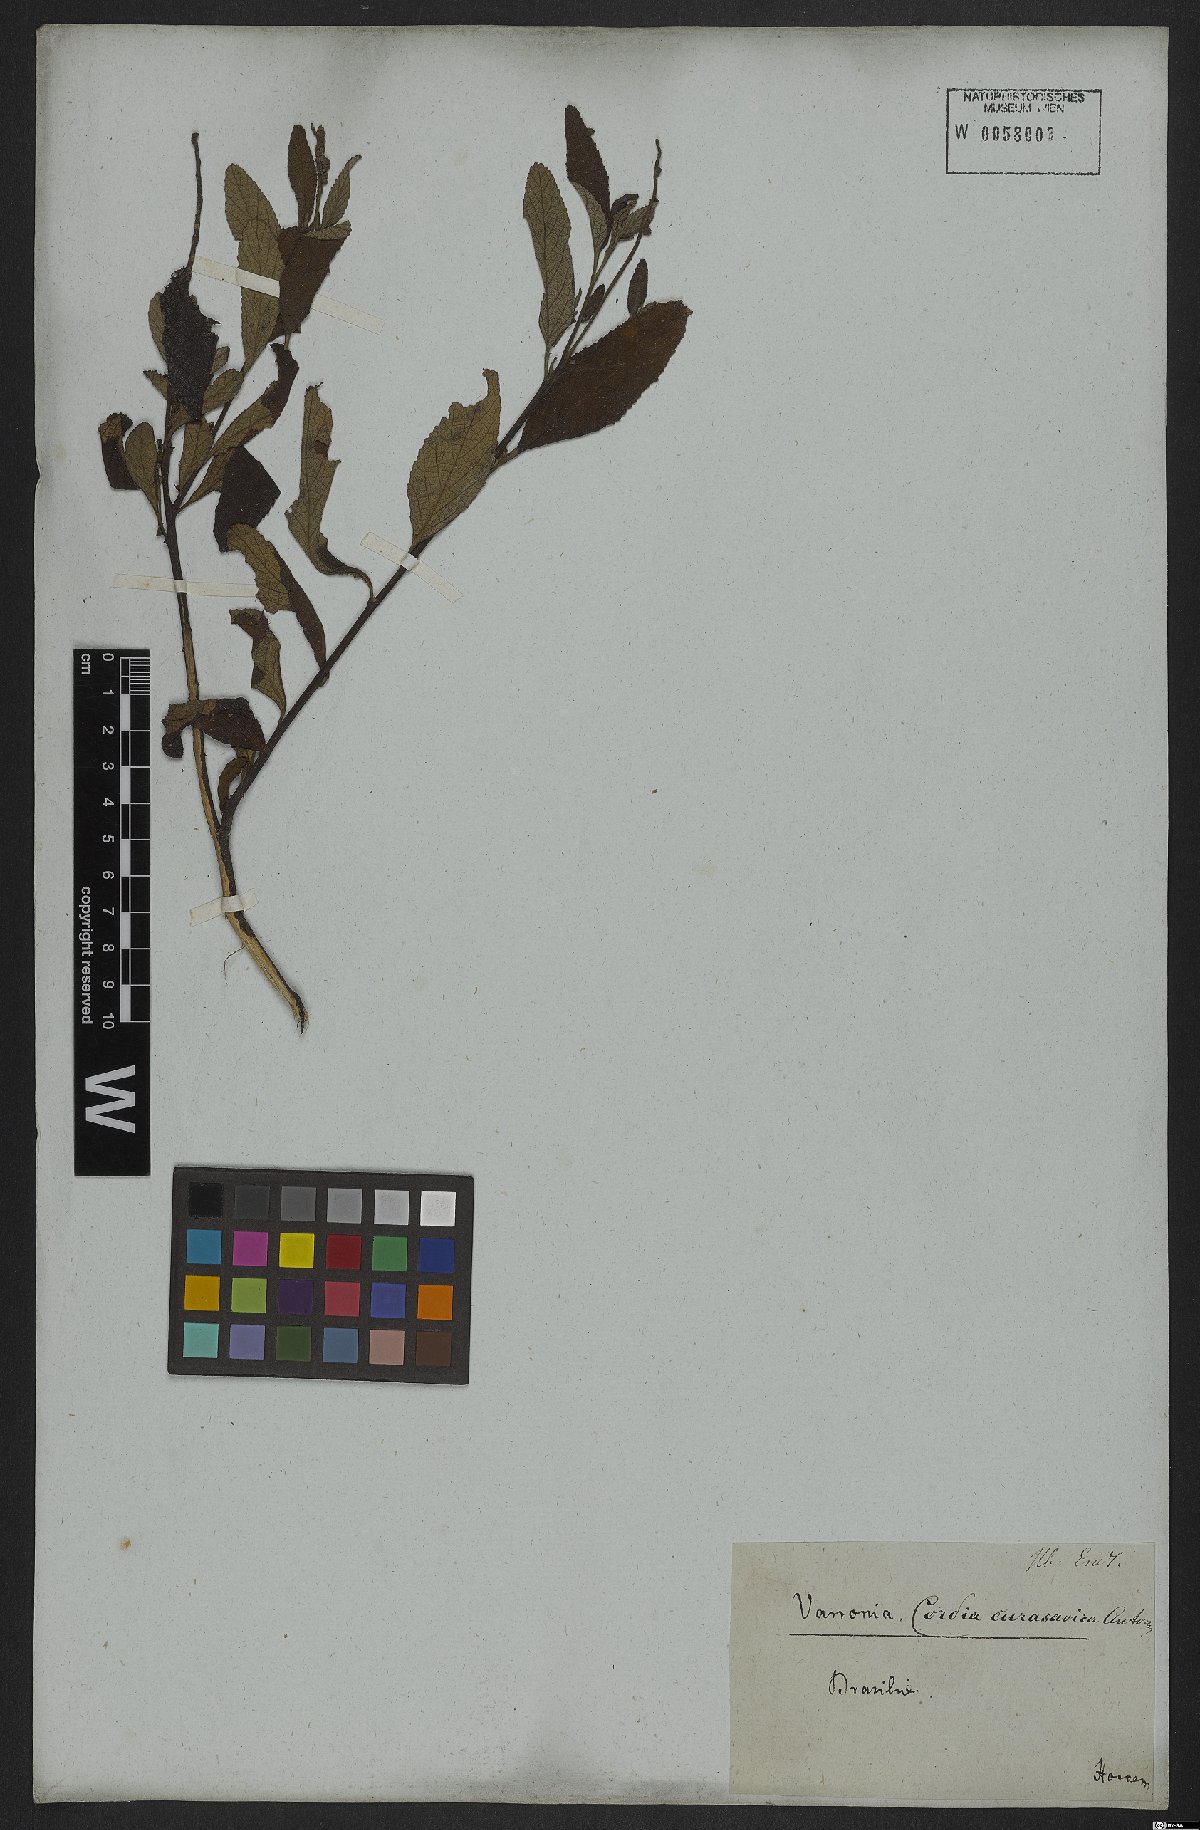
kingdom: Plantae
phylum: Tracheophyta
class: Magnoliopsida
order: Boraginales
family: Cordiaceae
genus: Varronia
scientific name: Varronia curassavica
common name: Black sage
